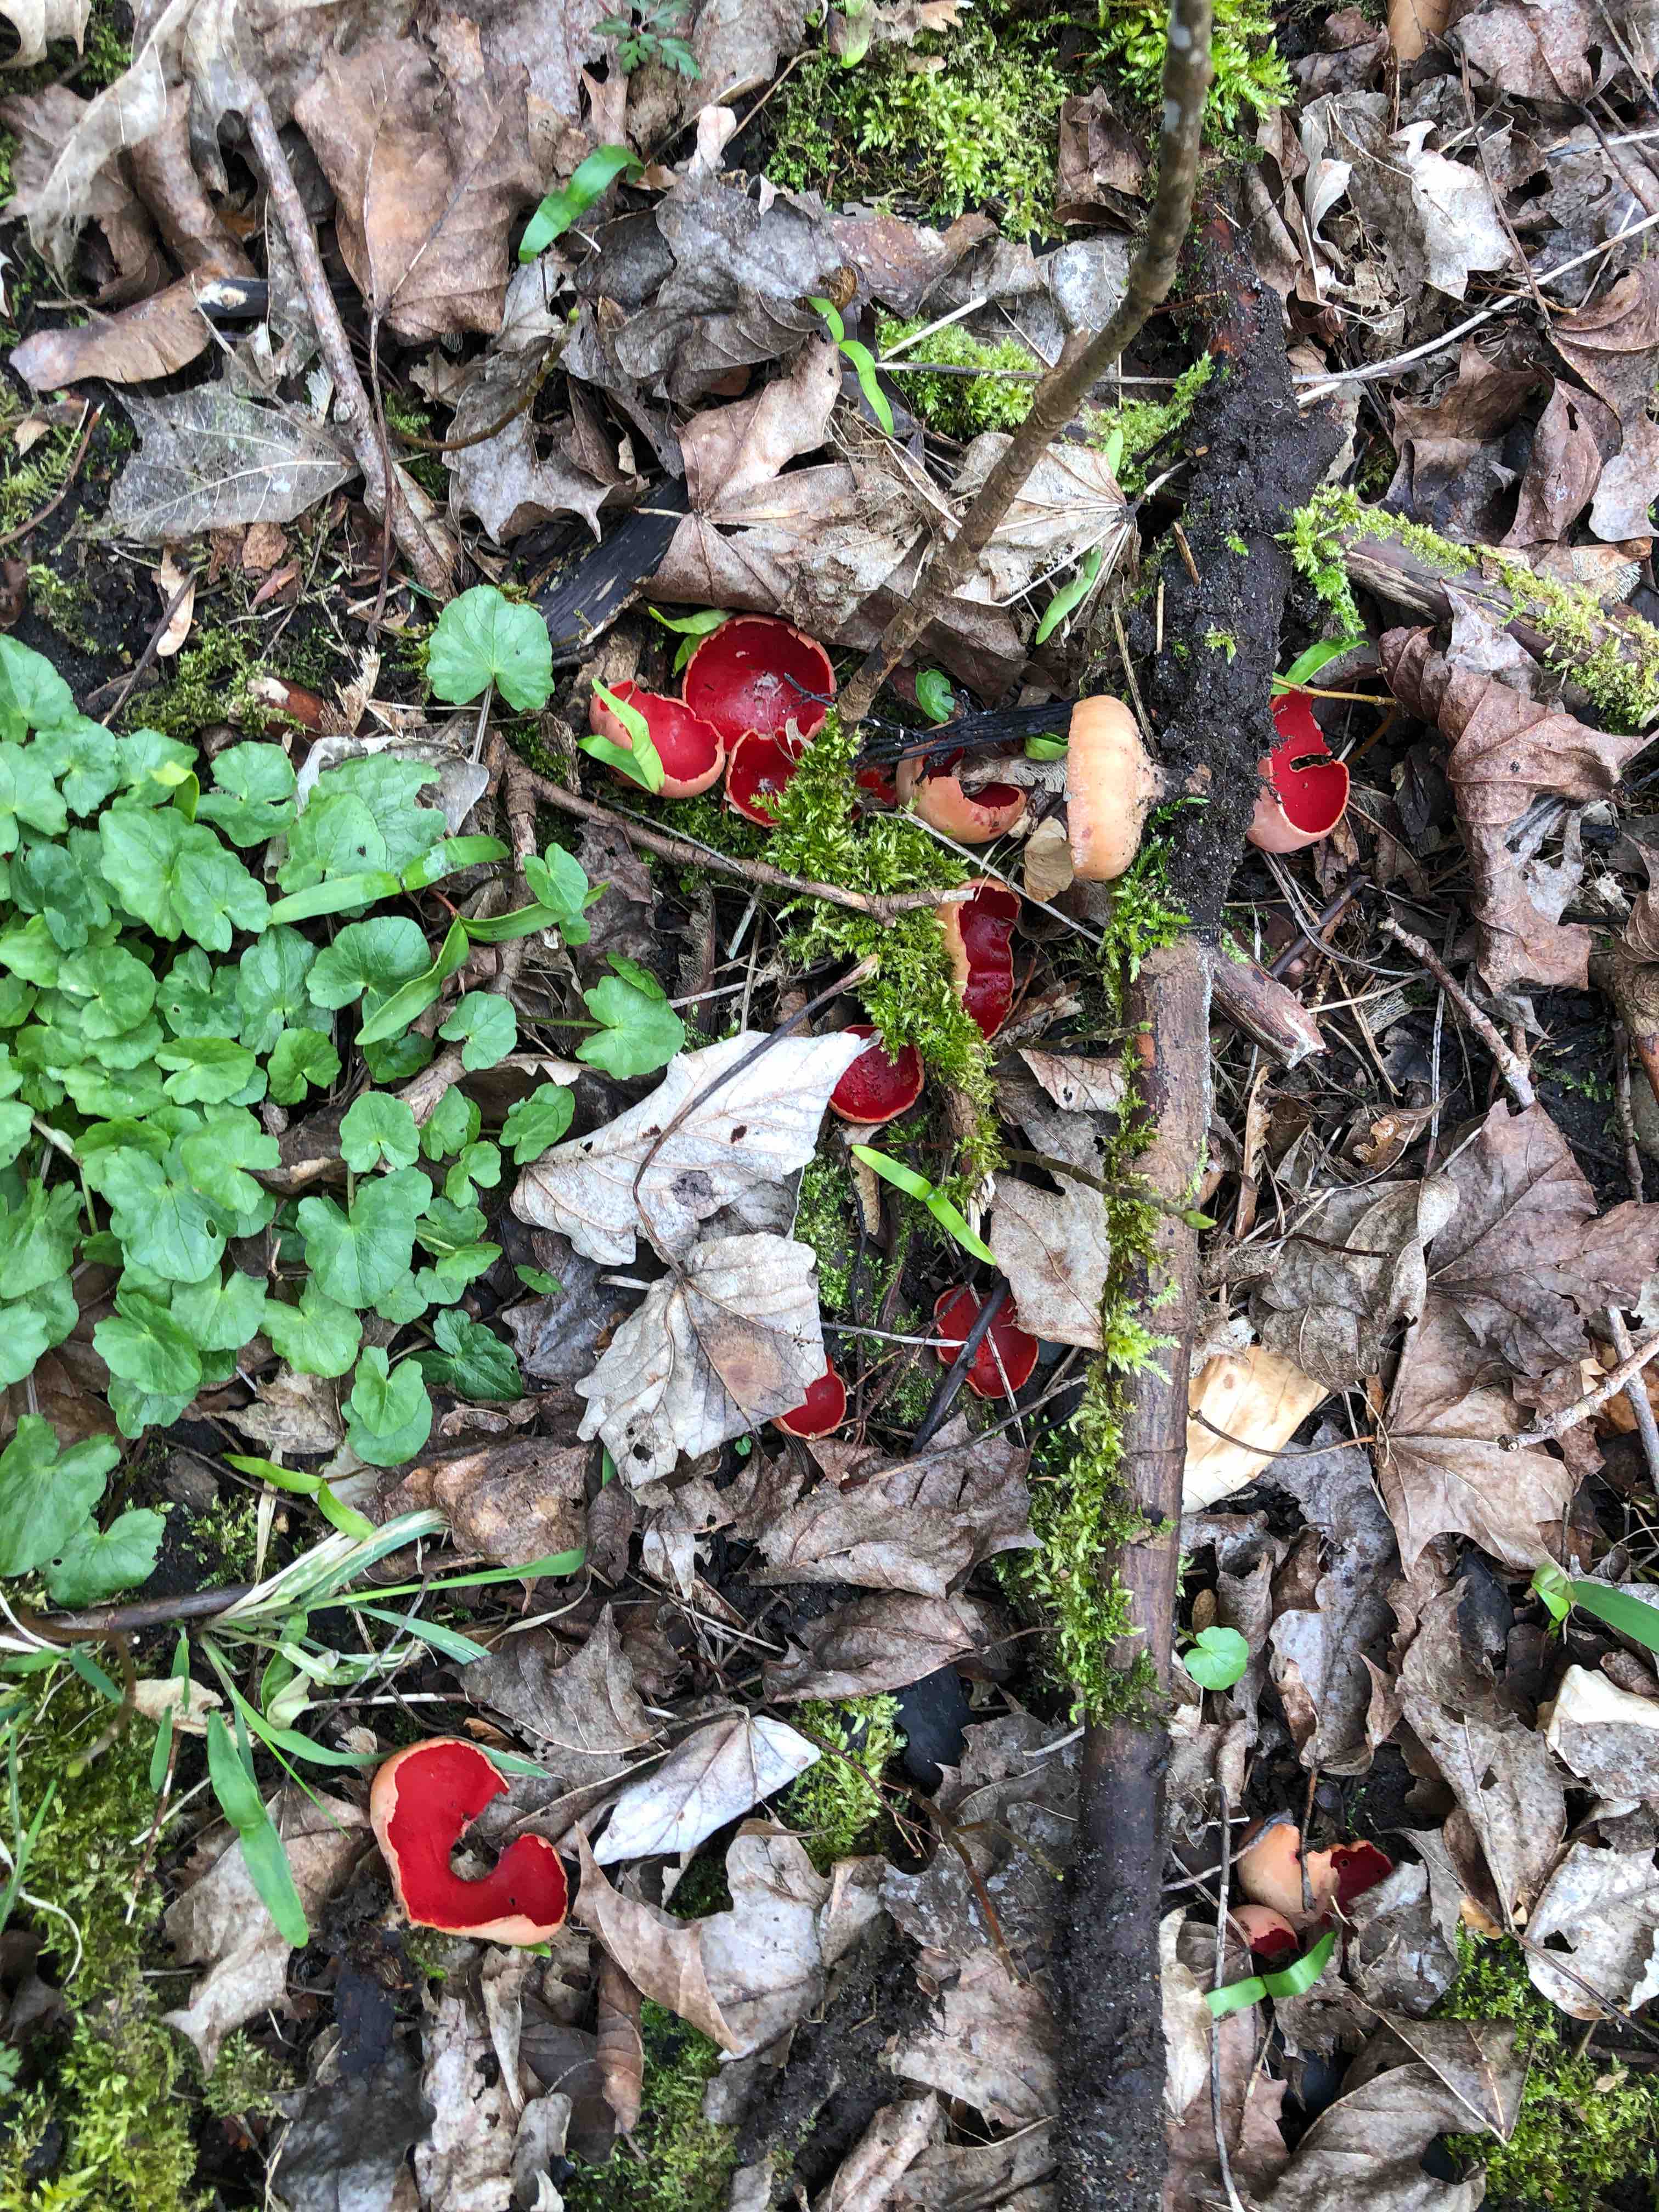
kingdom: Fungi
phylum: Ascomycota
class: Pezizomycetes
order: Pezizales
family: Sarcoscyphaceae
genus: Sarcoscypha
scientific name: Sarcoscypha austriaca
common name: krølhåret pragtbæger
